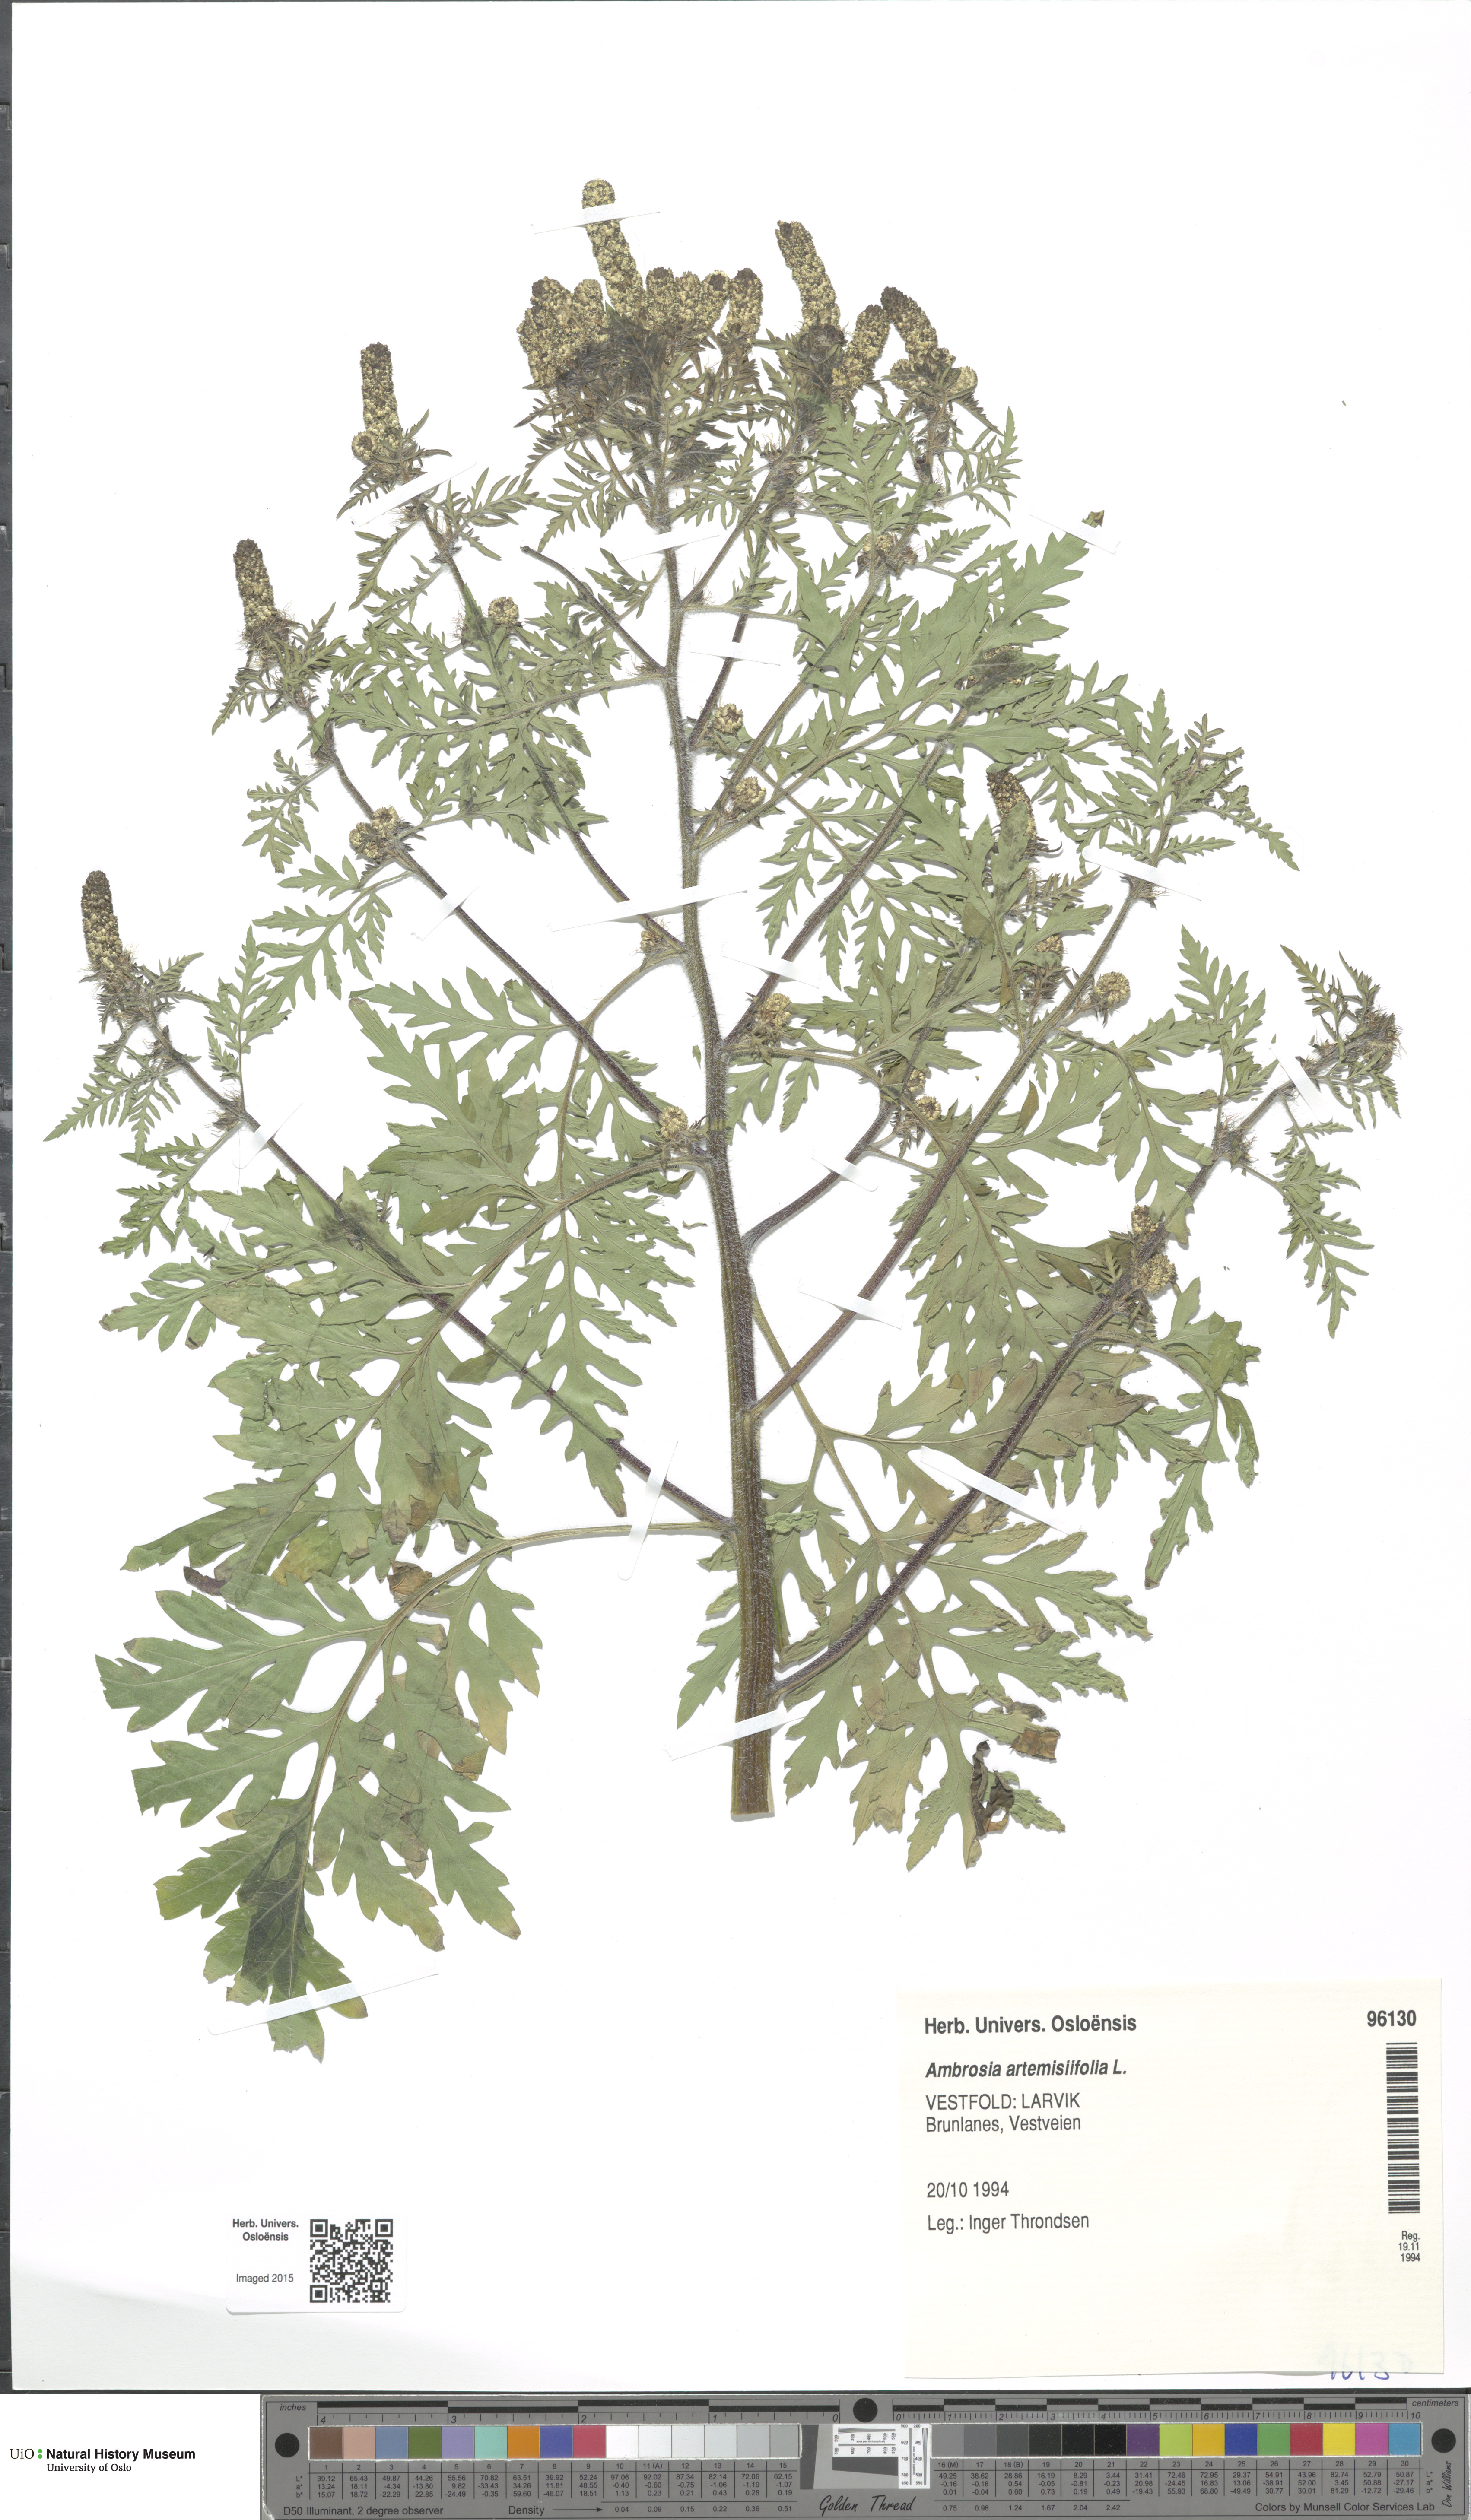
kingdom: Plantae
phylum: Tracheophyta
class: Magnoliopsida
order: Asterales
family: Asteraceae
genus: Ambrosia
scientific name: Ambrosia artemisiifolia
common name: Annual ragweed
